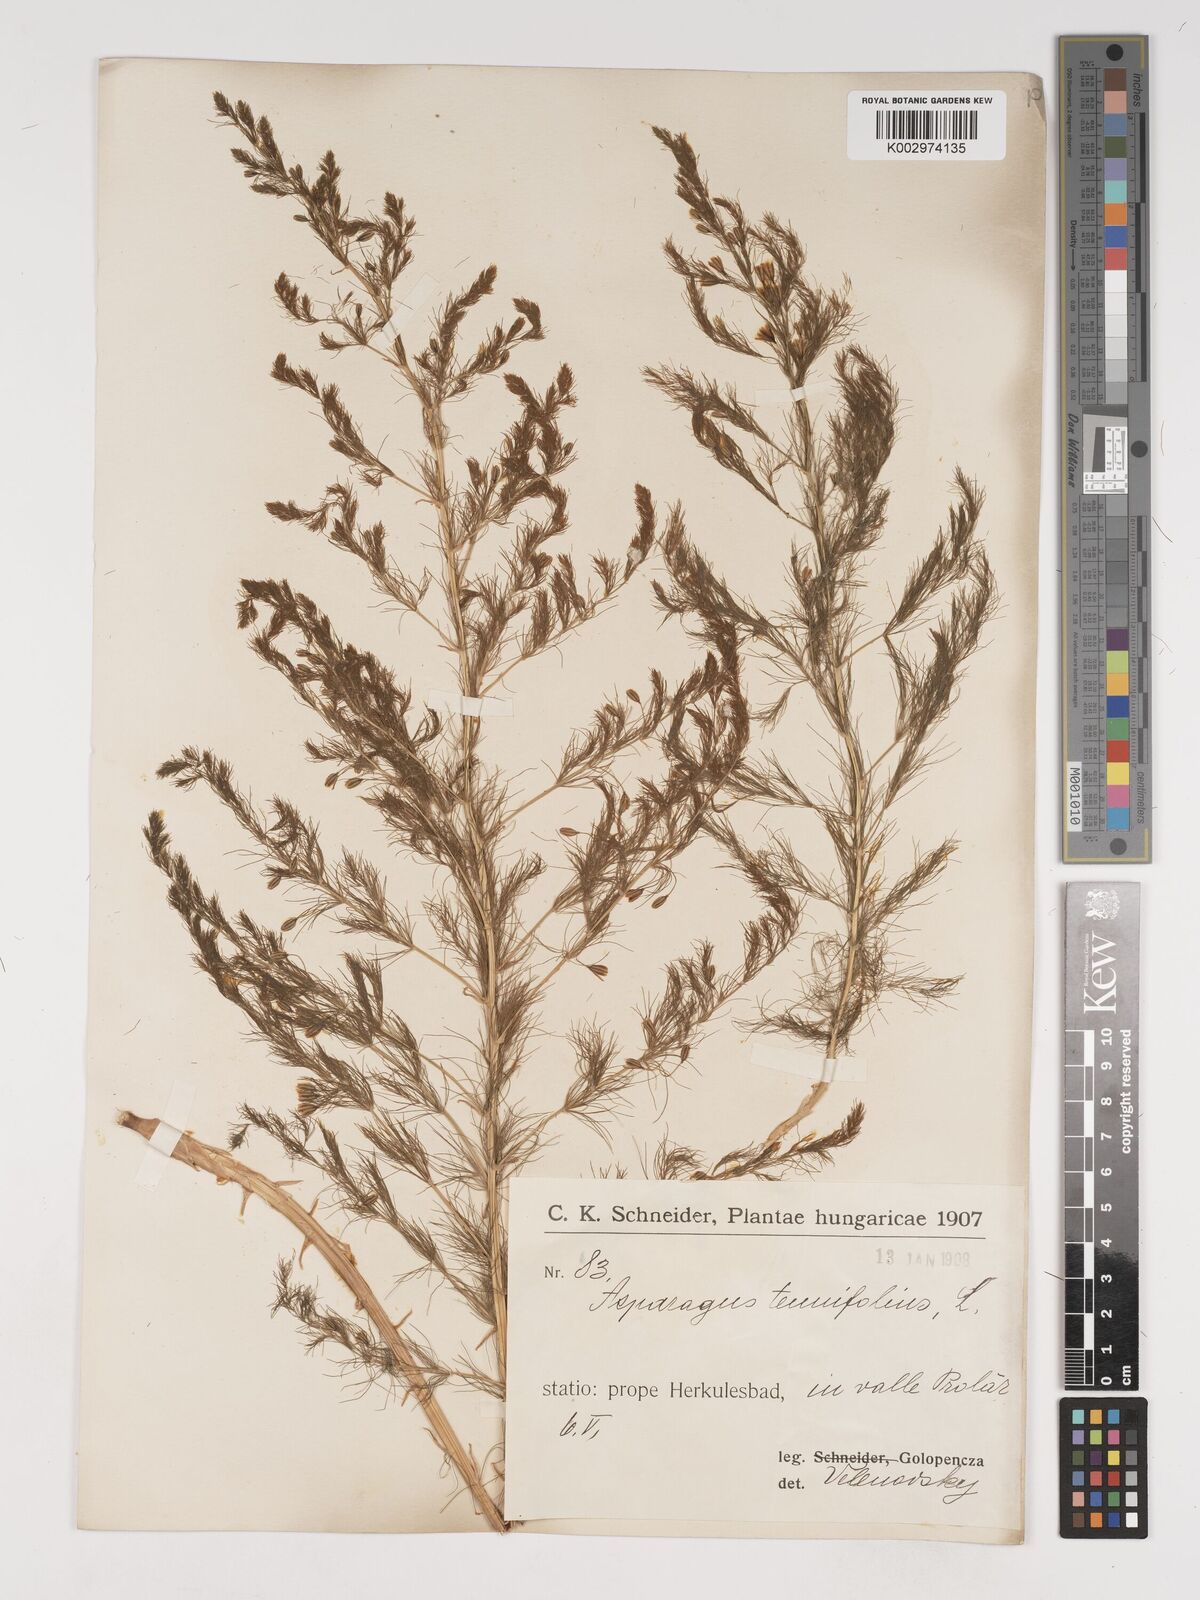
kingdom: Plantae
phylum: Tracheophyta
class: Liliopsida
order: Asparagales
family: Asparagaceae
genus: Asparagus
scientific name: Asparagus tenuifolius
